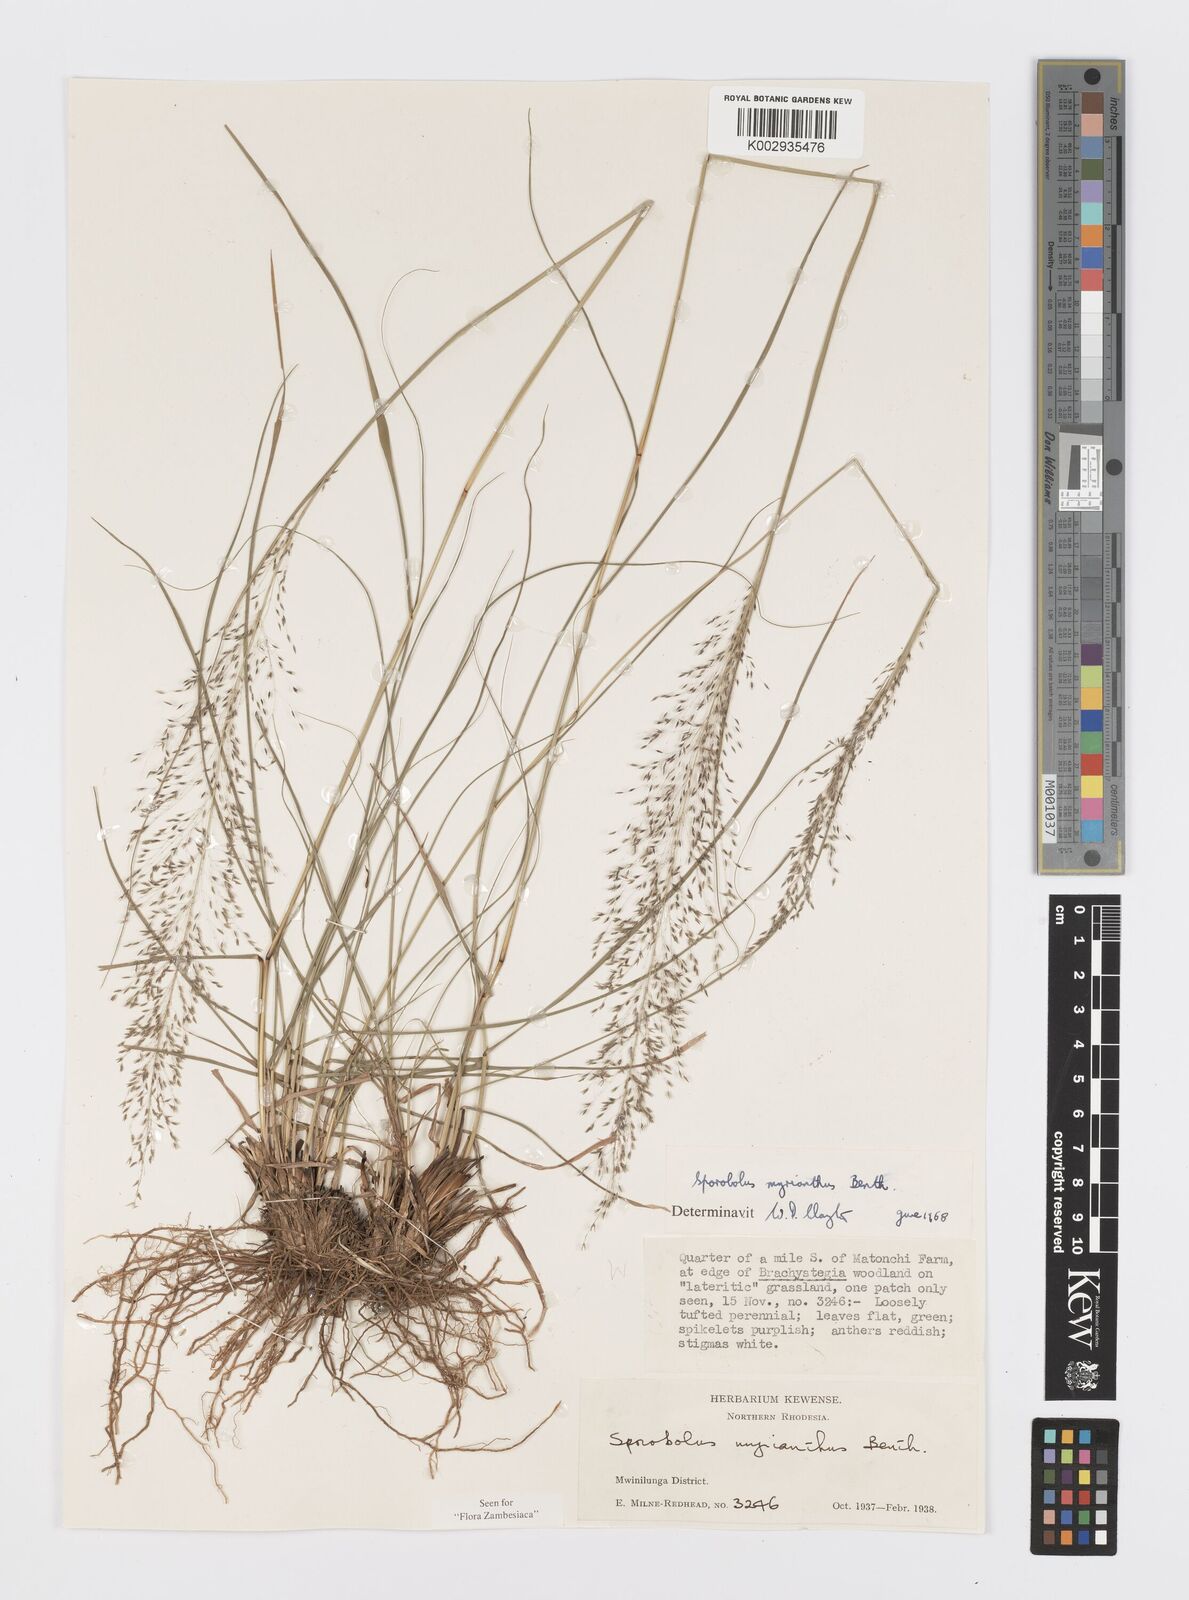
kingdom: Plantae
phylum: Tracheophyta
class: Liliopsida
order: Poales
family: Poaceae
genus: Sporobolus
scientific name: Sporobolus myrianthus
